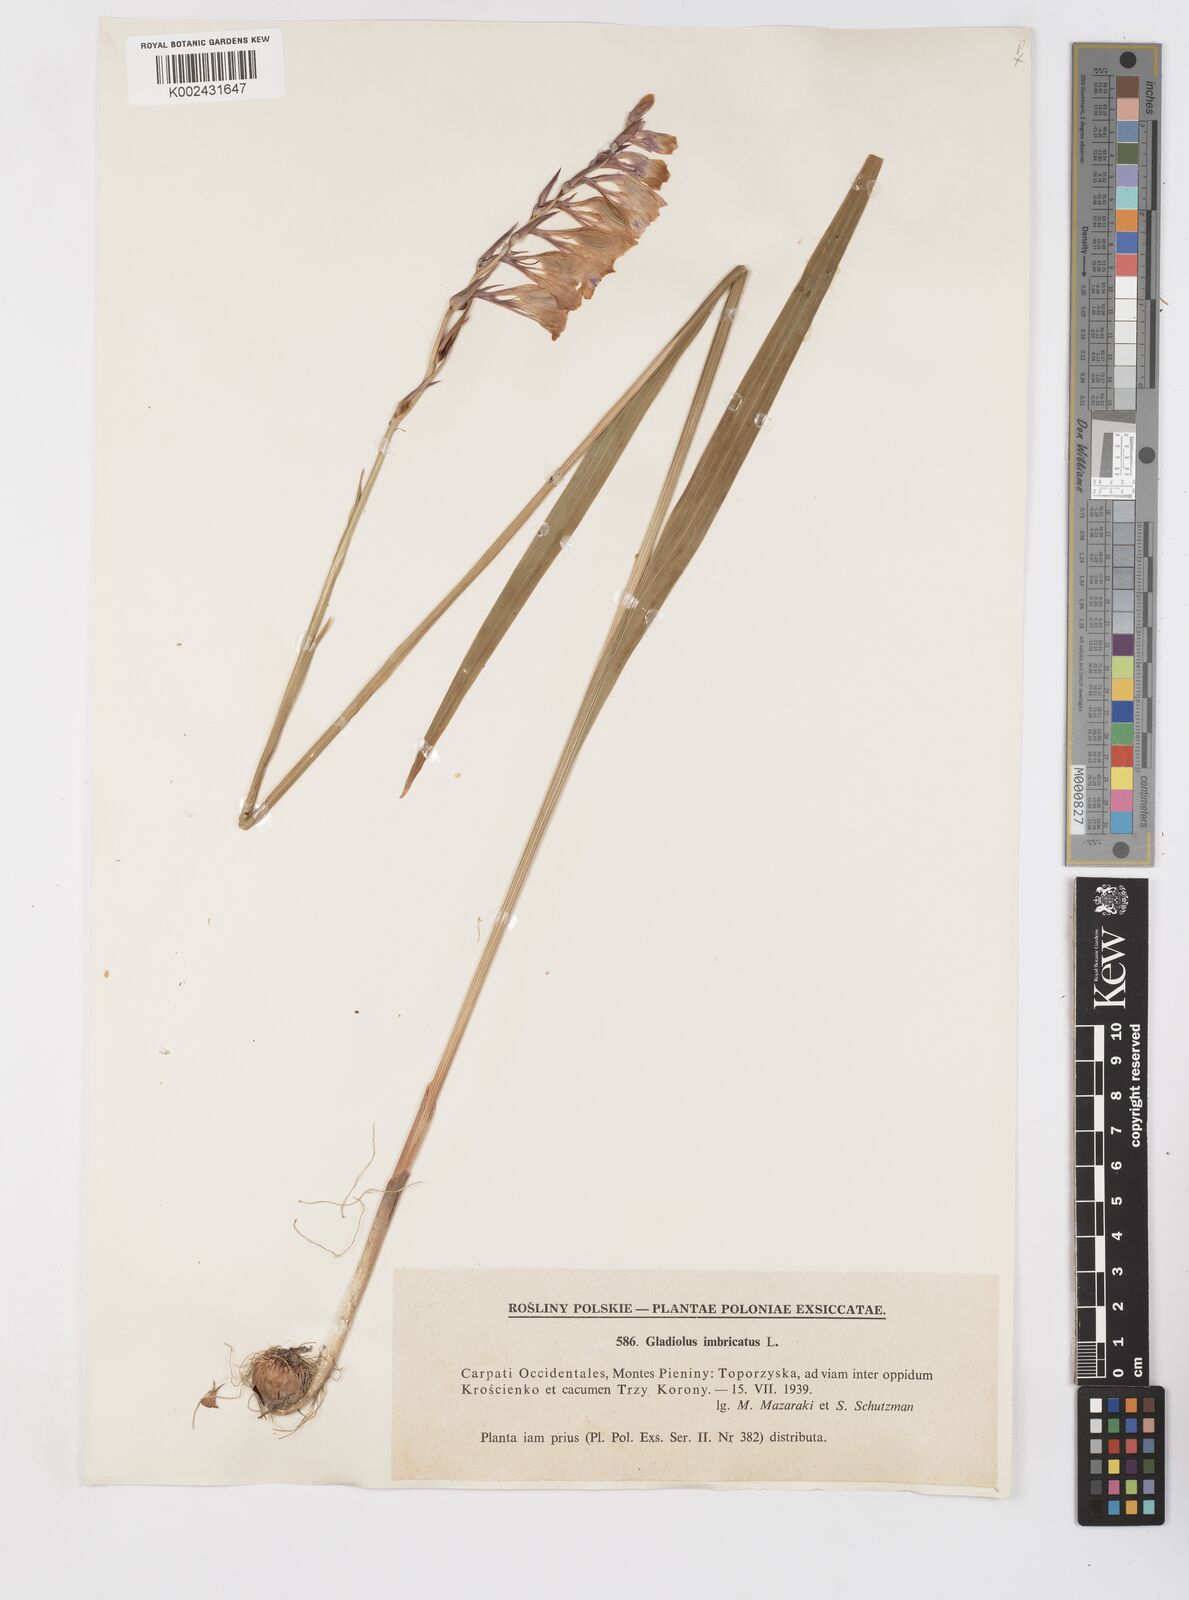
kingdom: Plantae
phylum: Tracheophyta
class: Liliopsida
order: Asparagales
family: Iridaceae
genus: Gladiolus
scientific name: Gladiolus imbricatus
